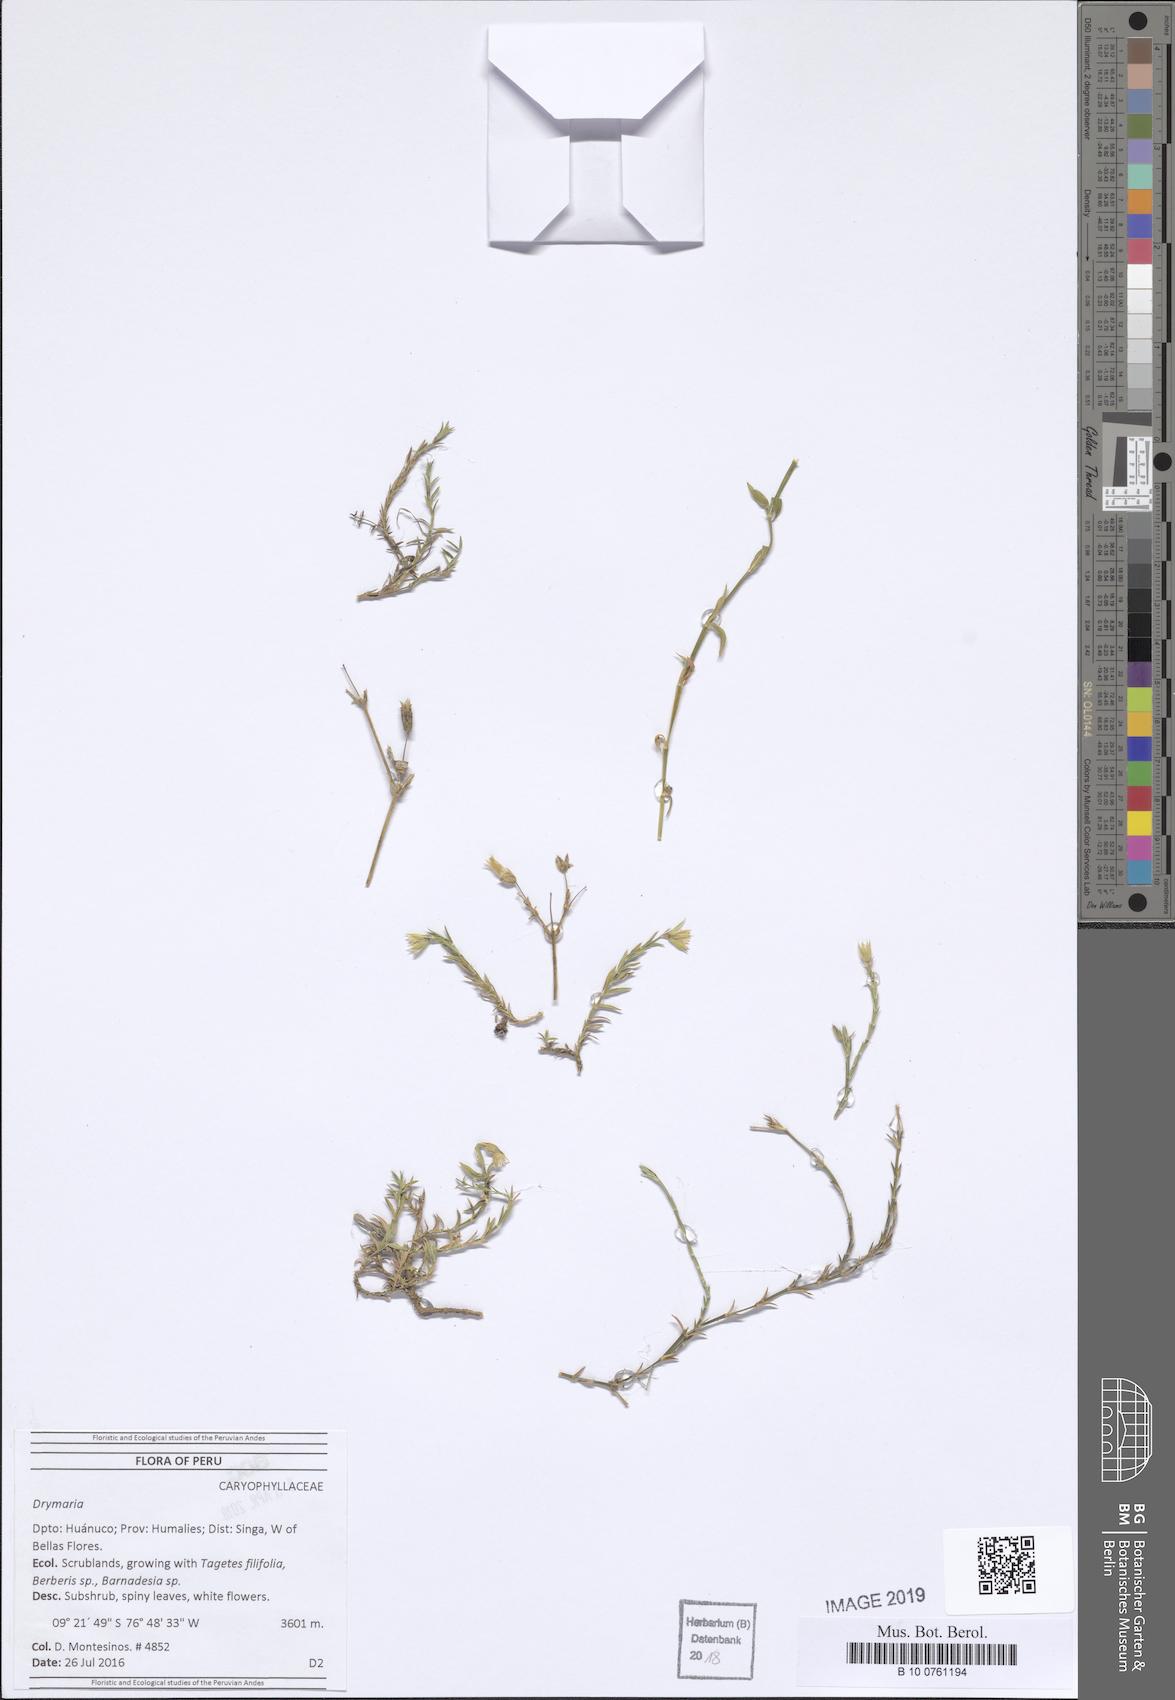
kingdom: Plantae
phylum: Tracheophyta
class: Magnoliopsida
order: Caryophyllales
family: Caryophyllaceae
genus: Drymaria
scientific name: Drymaria
